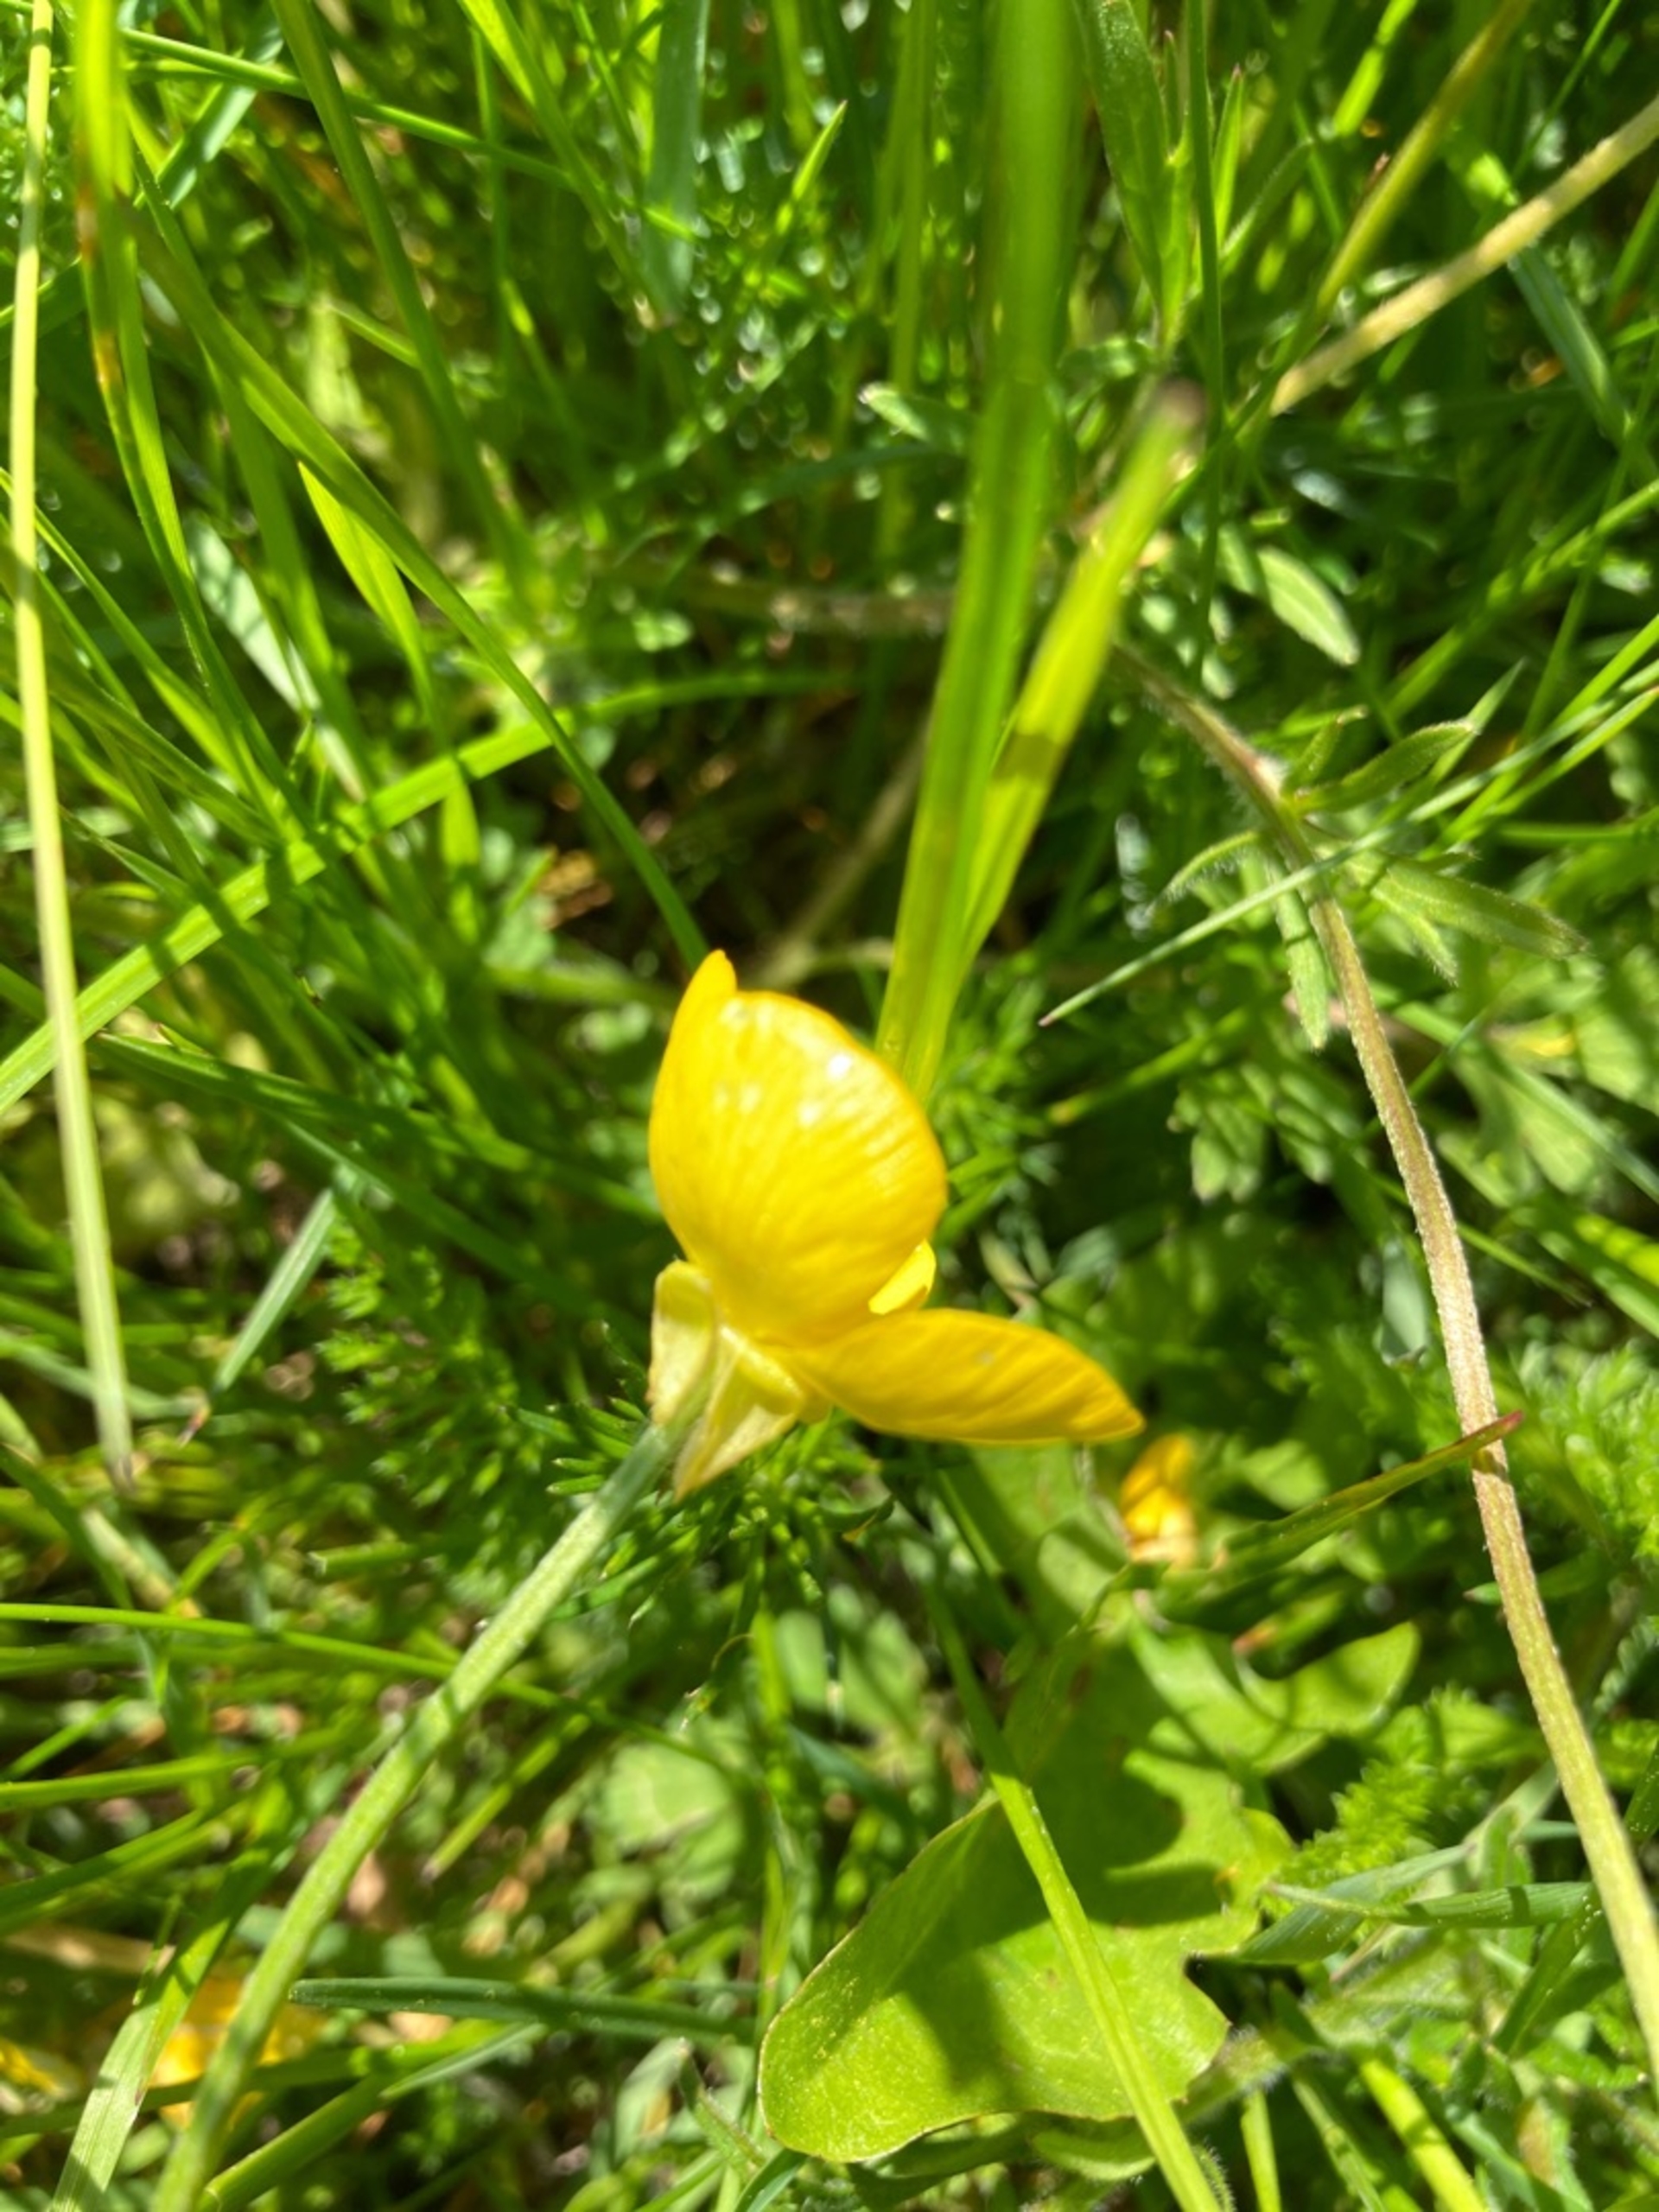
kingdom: Plantae
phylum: Tracheophyta
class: Magnoliopsida
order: Ranunculales
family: Ranunculaceae
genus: Ranunculus
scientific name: Ranunculus bulbosus
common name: Knold-ranunkel
